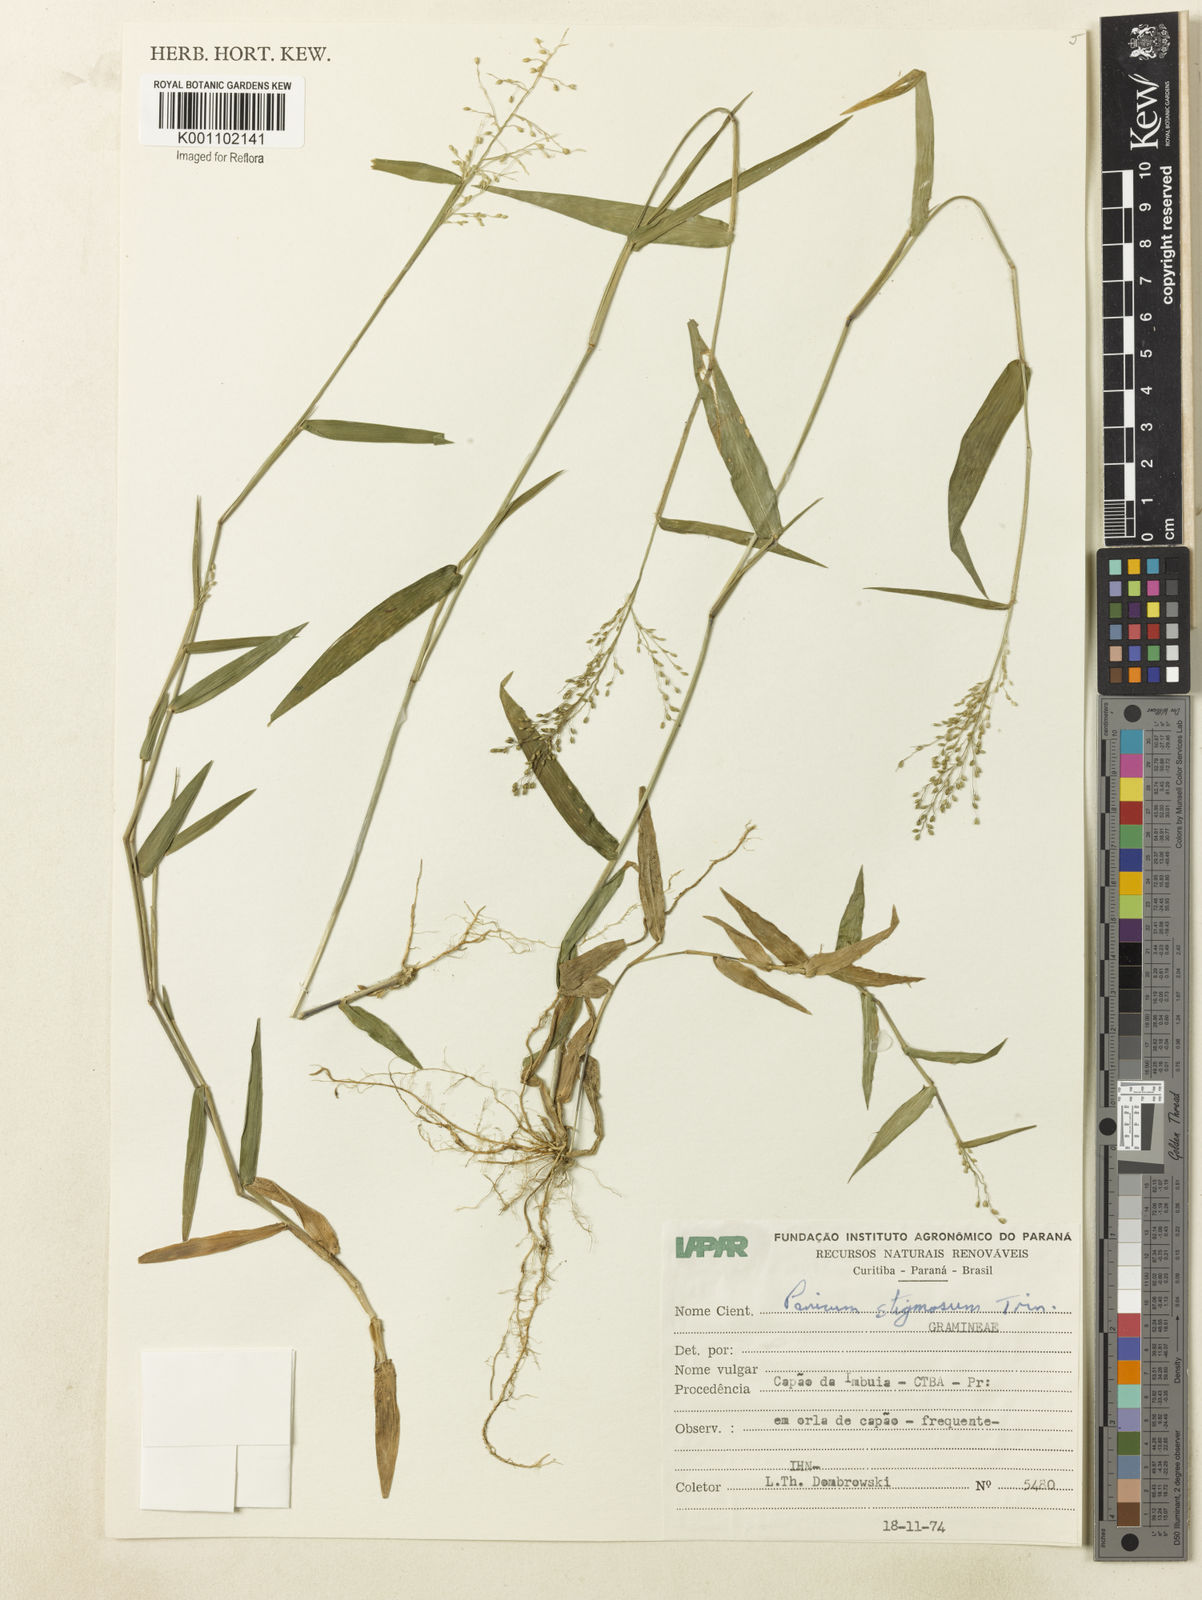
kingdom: Plantae
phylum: Tracheophyta
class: Liliopsida
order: Poales
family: Poaceae
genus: Dichanthelium
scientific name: Dichanthelium stigmosum
